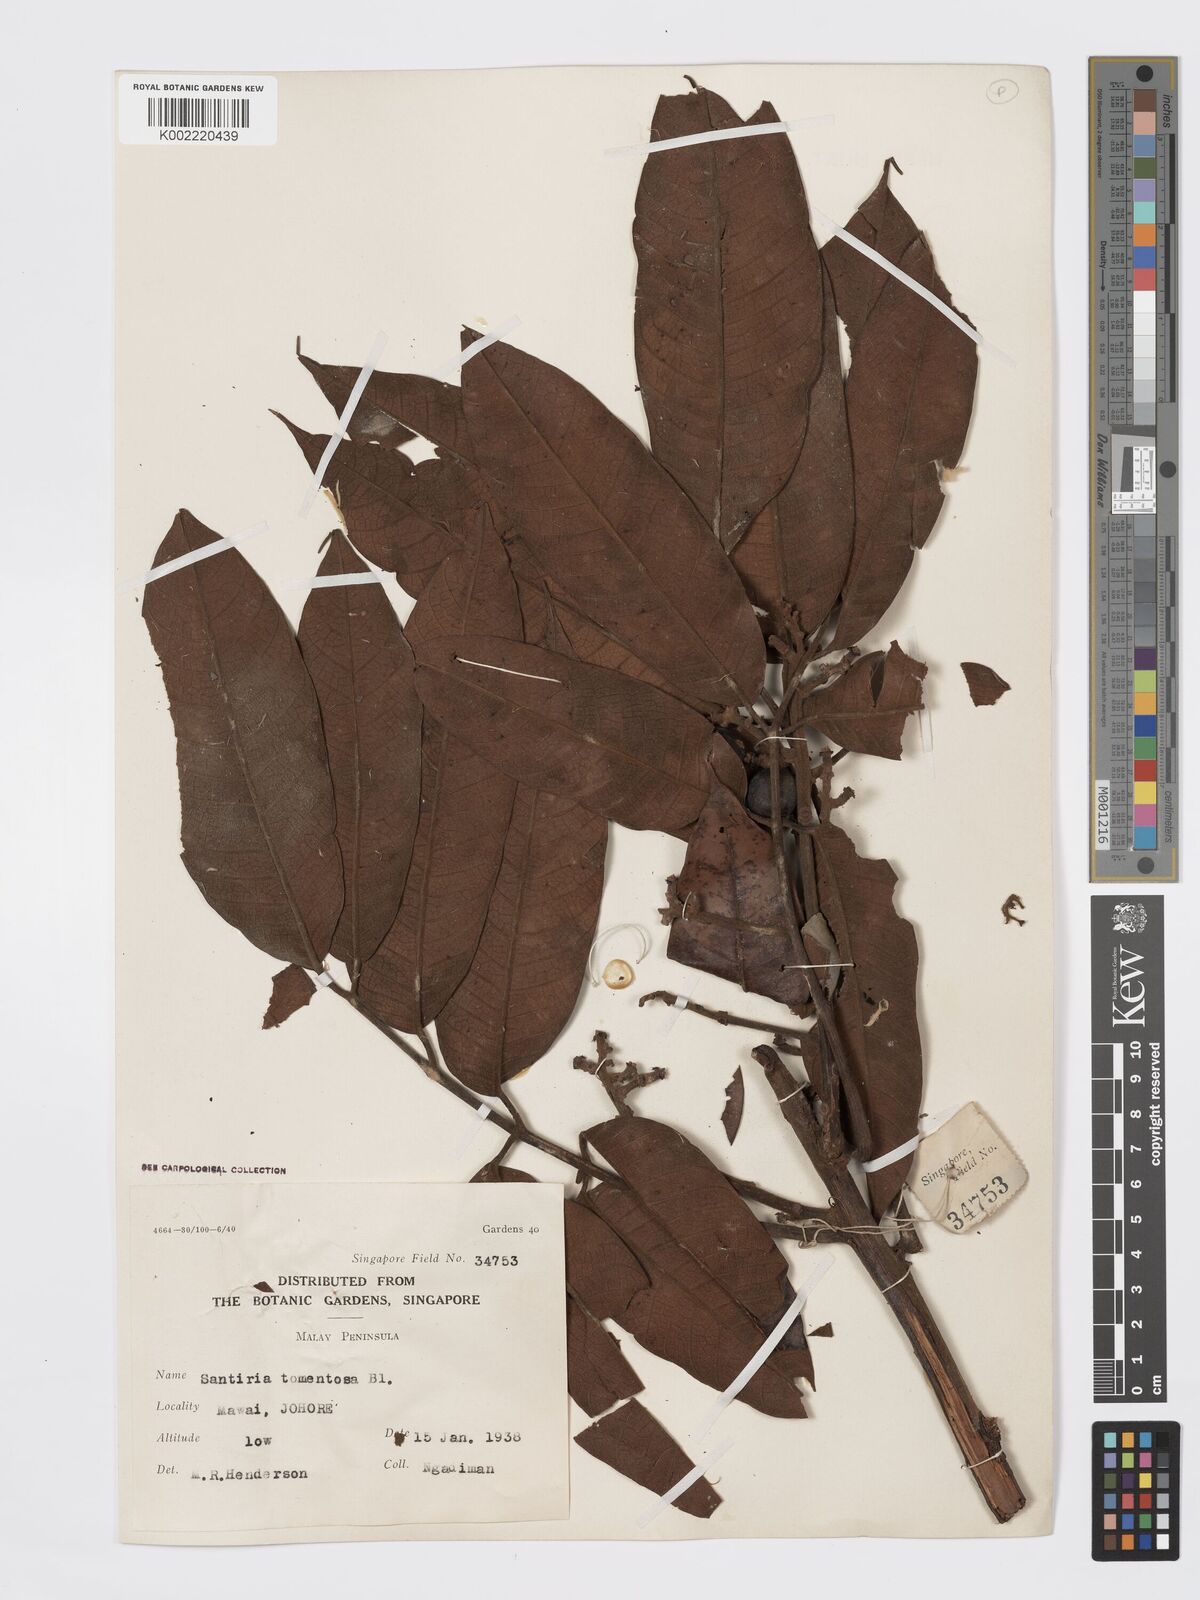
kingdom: Plantae
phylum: Tracheophyta
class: Magnoliopsida
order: Sapindales
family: Burseraceae
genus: Santiria
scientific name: Santiria tomentosa
